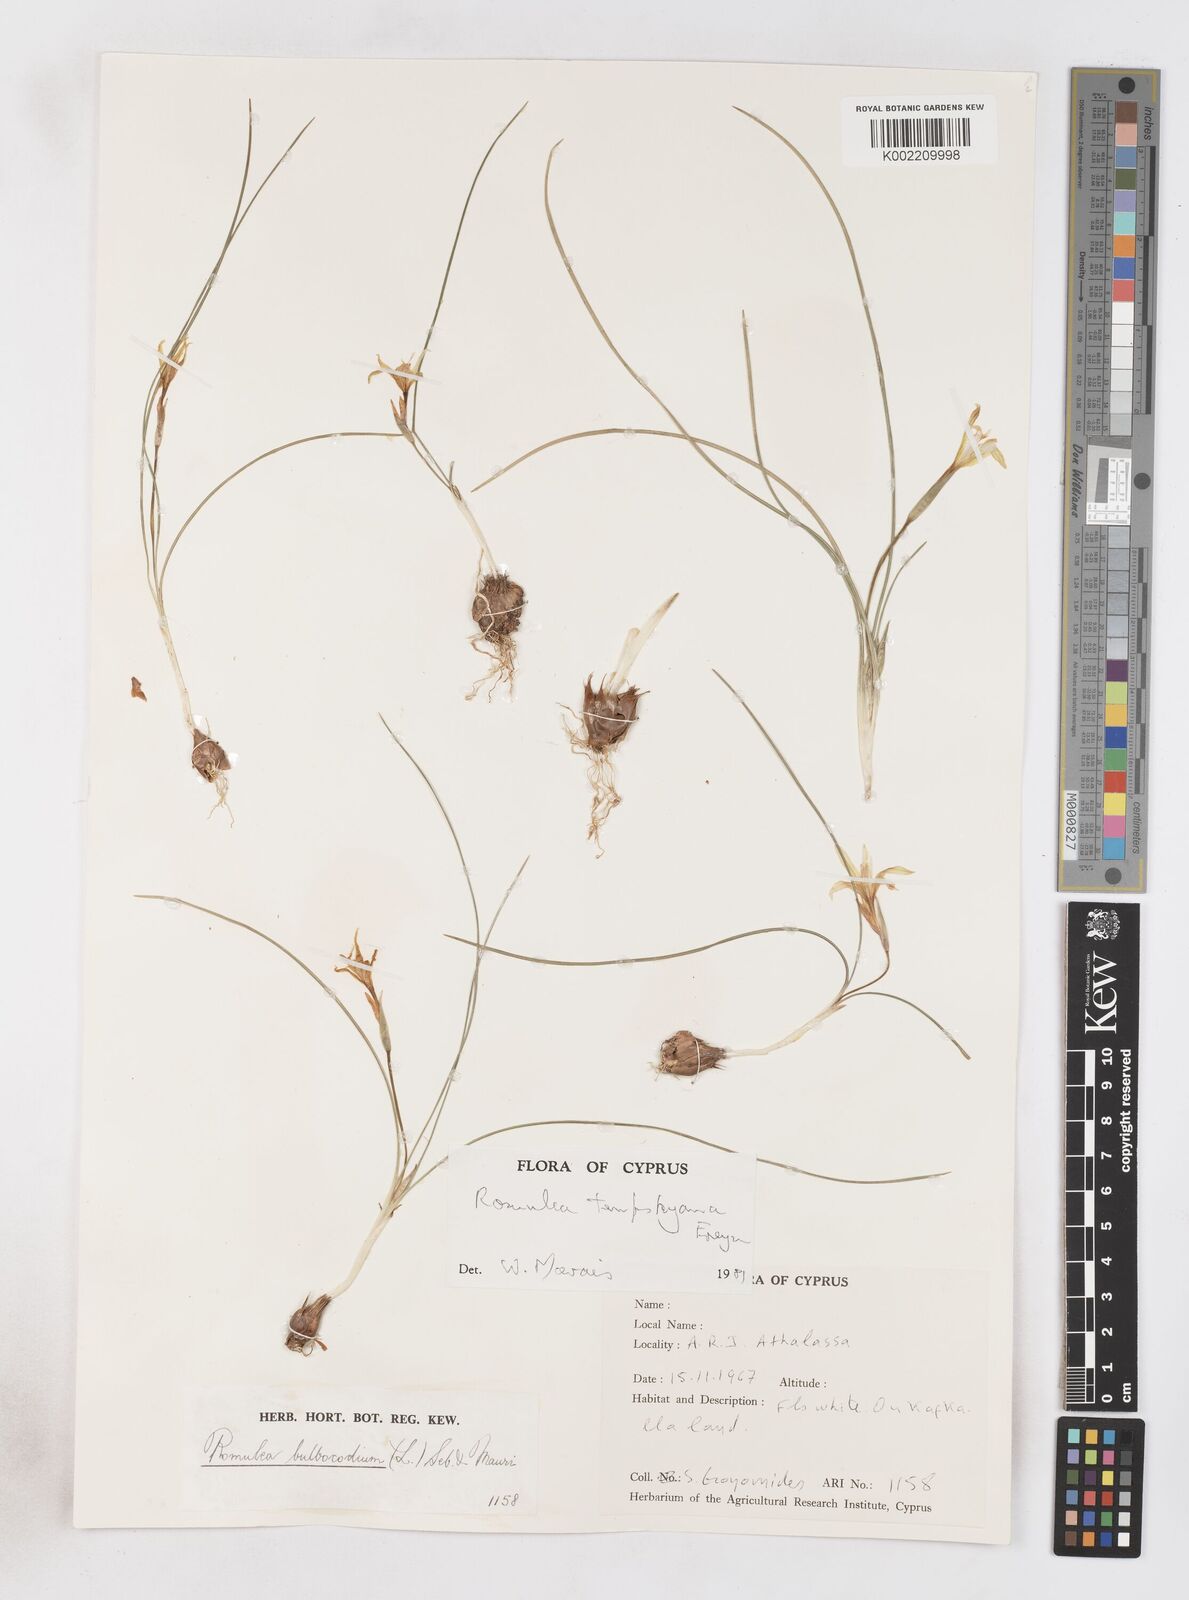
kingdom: Plantae
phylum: Tracheophyta
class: Liliopsida
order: Asparagales
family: Iridaceae
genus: Romulea
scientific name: Romulea tempskyana
